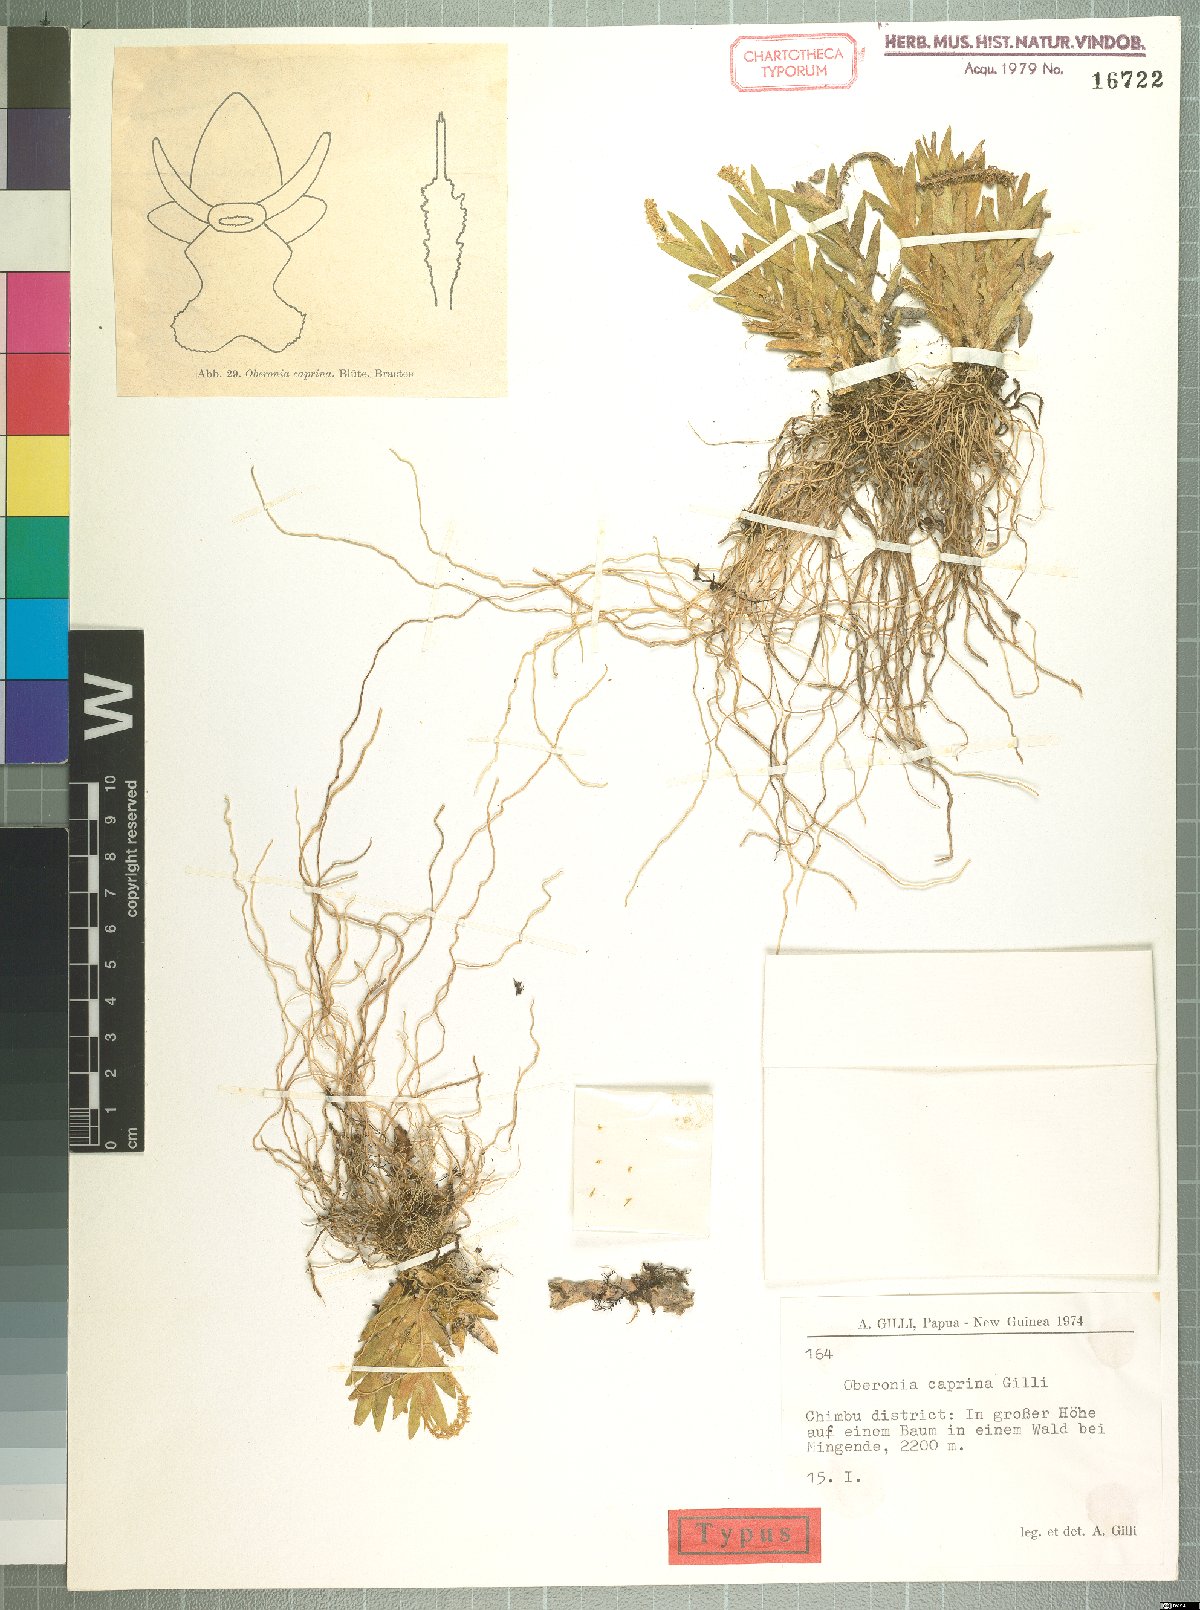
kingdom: Plantae
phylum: Tracheophyta
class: Liliopsida
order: Asparagales
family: Orchidaceae
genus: Oberonia
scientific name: Oberonia punctata
